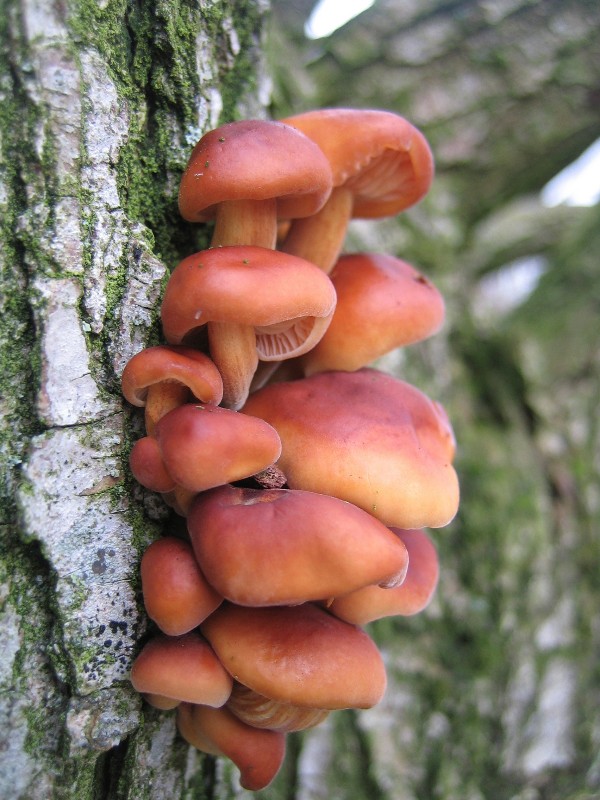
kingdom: Fungi
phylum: Basidiomycota
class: Agaricomycetes
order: Agaricales
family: Physalacriaceae
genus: Flammulina
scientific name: Flammulina velutipes
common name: gul fløjlsfod
